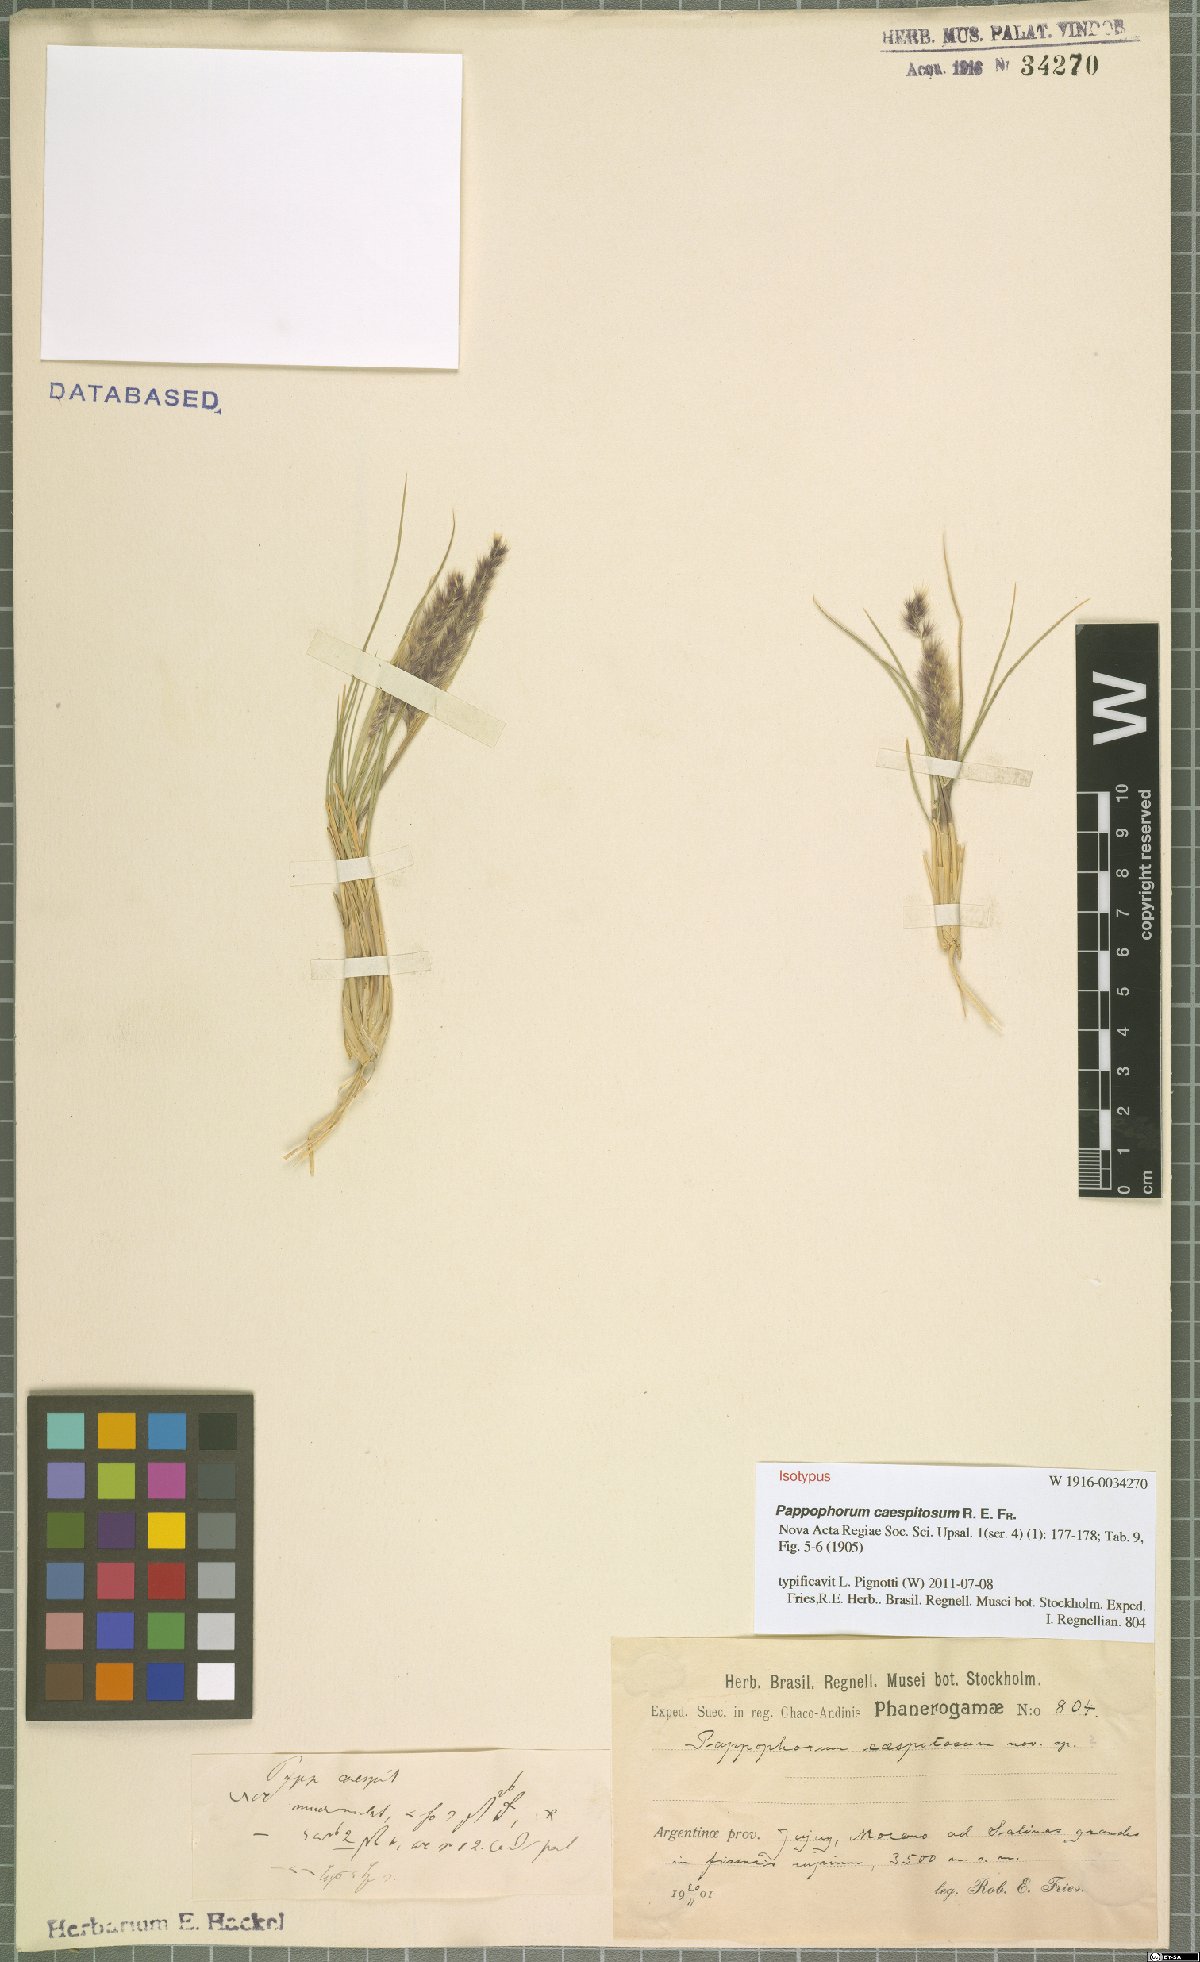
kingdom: Plantae
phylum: Tracheophyta
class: Liliopsida
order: Poales
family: Poaceae
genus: Pappophorum
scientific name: Pappophorum caespitosum
